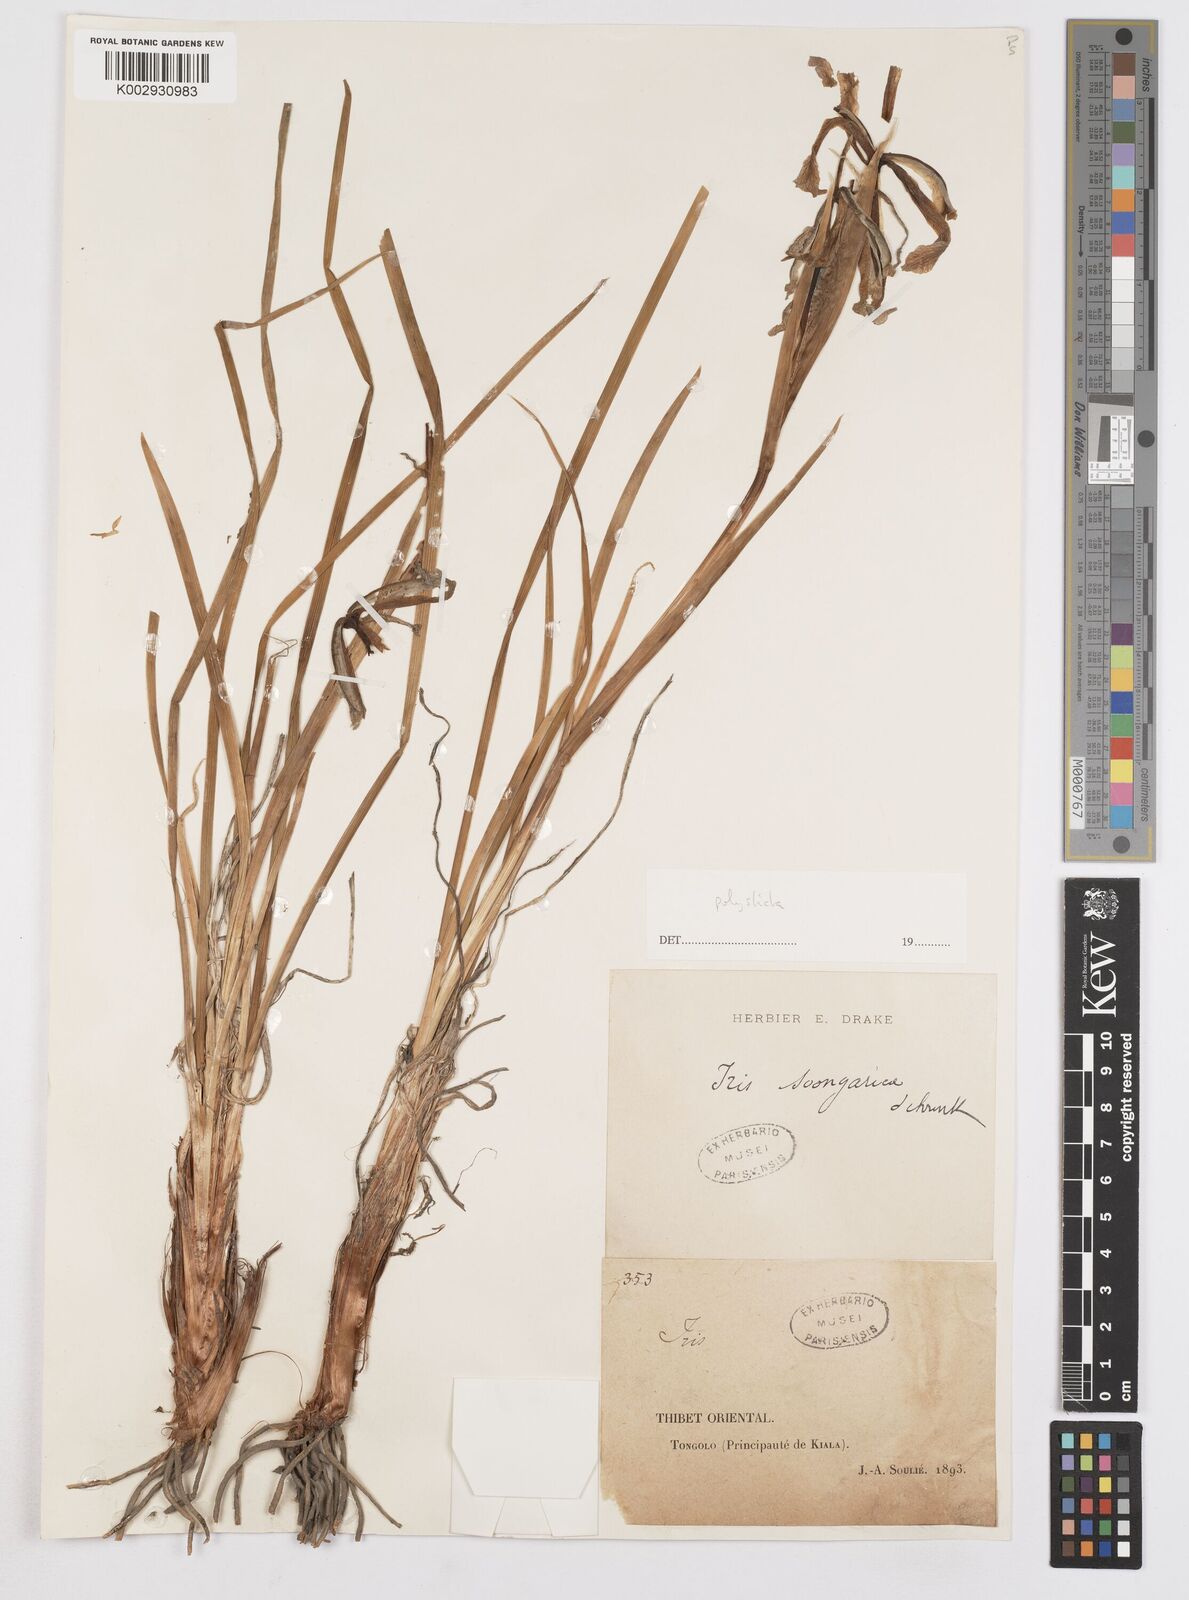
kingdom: Plantae
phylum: Tracheophyta
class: Liliopsida
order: Asparagales
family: Iridaceae
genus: Iris
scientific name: Iris farreri
